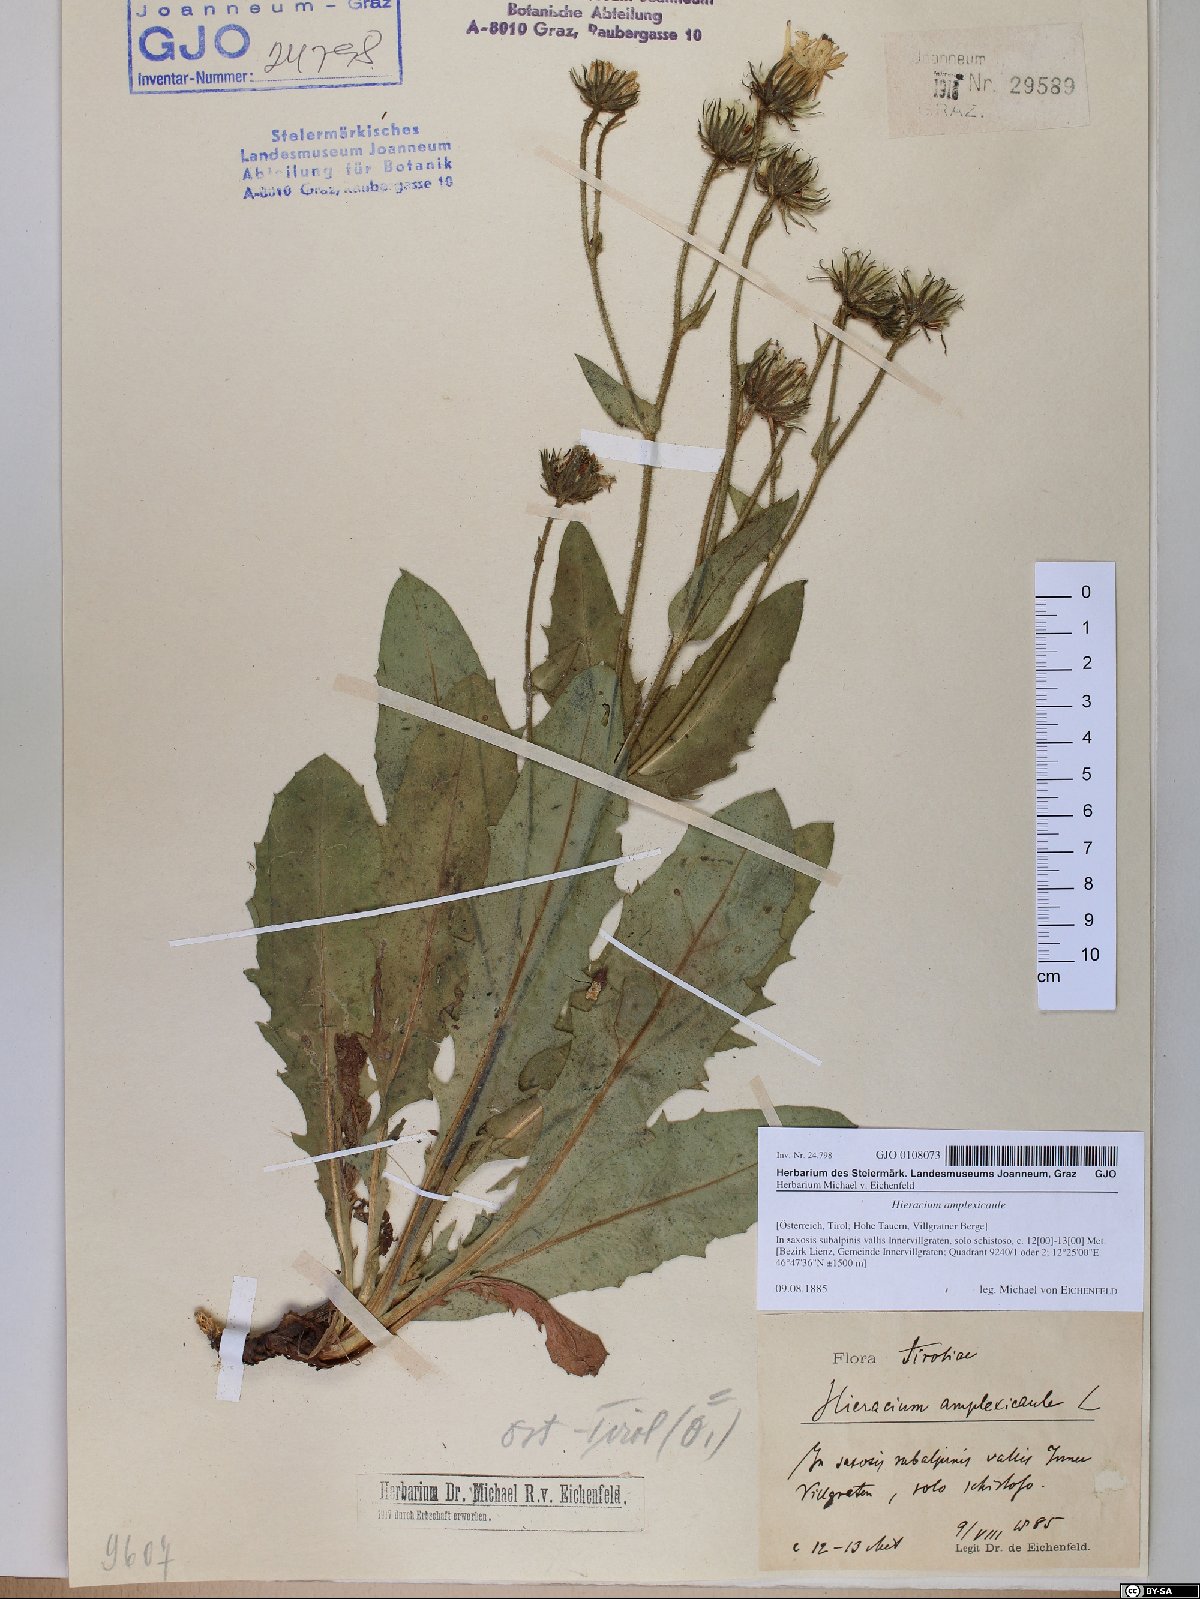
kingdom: Plantae
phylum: Tracheophyta
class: Magnoliopsida
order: Asterales
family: Asteraceae
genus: Hieracium
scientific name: Hieracium amplexicaule
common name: Sticky hawkweed
